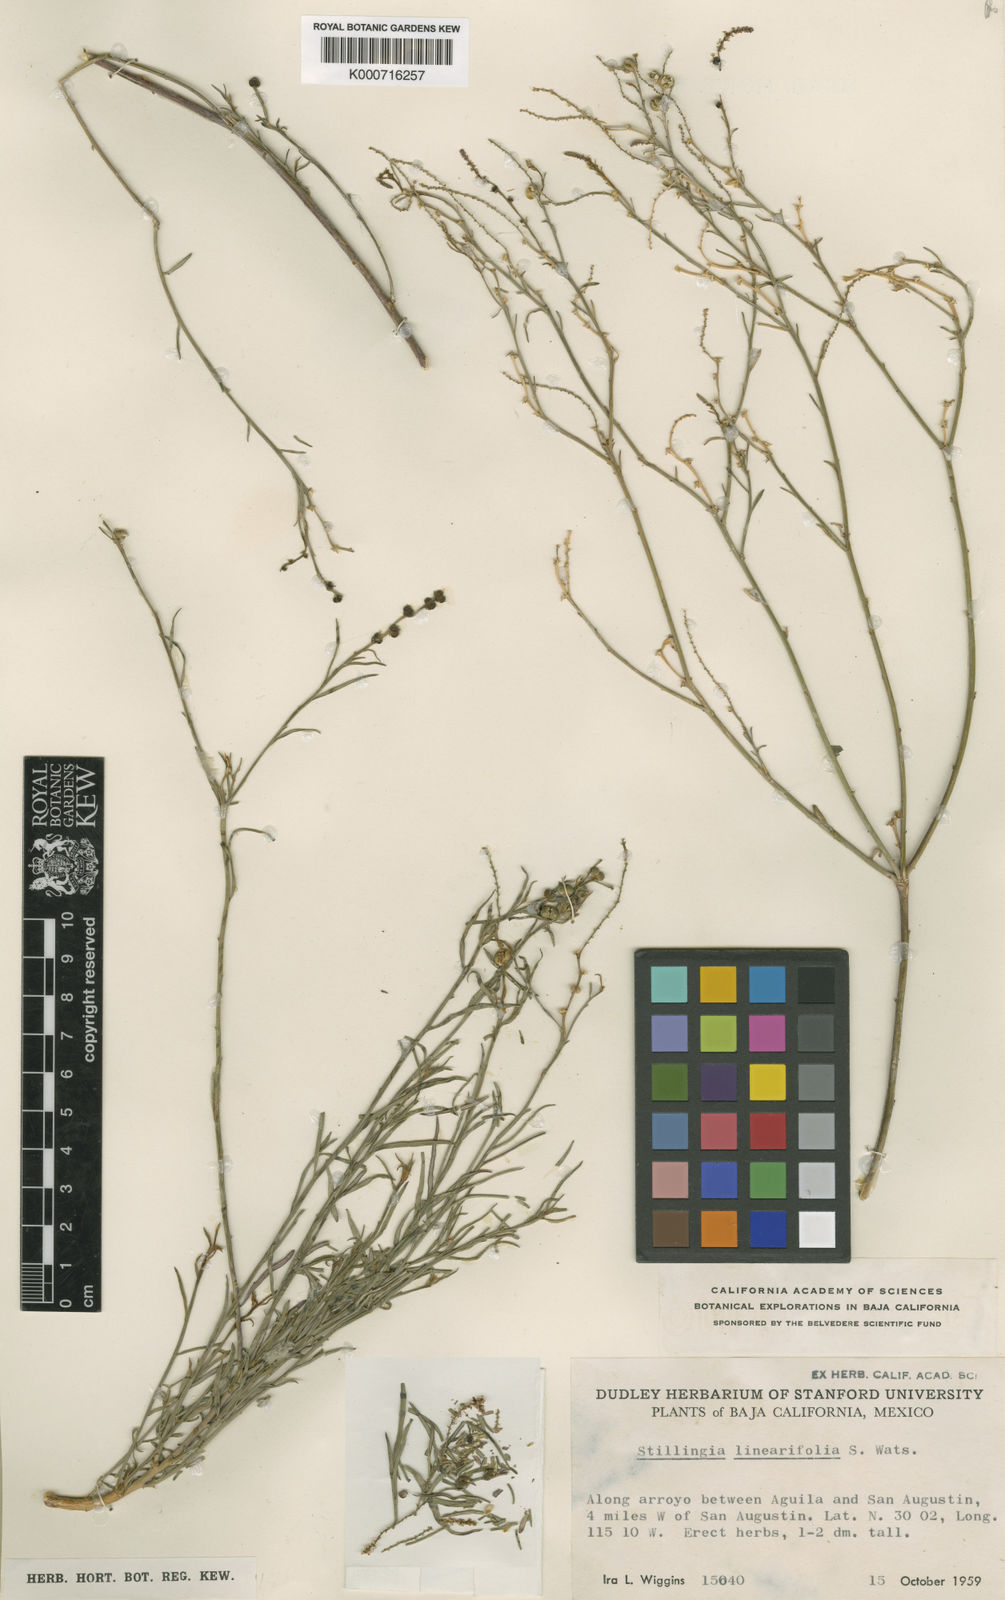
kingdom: Plantae
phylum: Tracheophyta
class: Magnoliopsida
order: Malpighiales
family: Euphorbiaceae
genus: Stillingia
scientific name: Stillingia linearifolia
